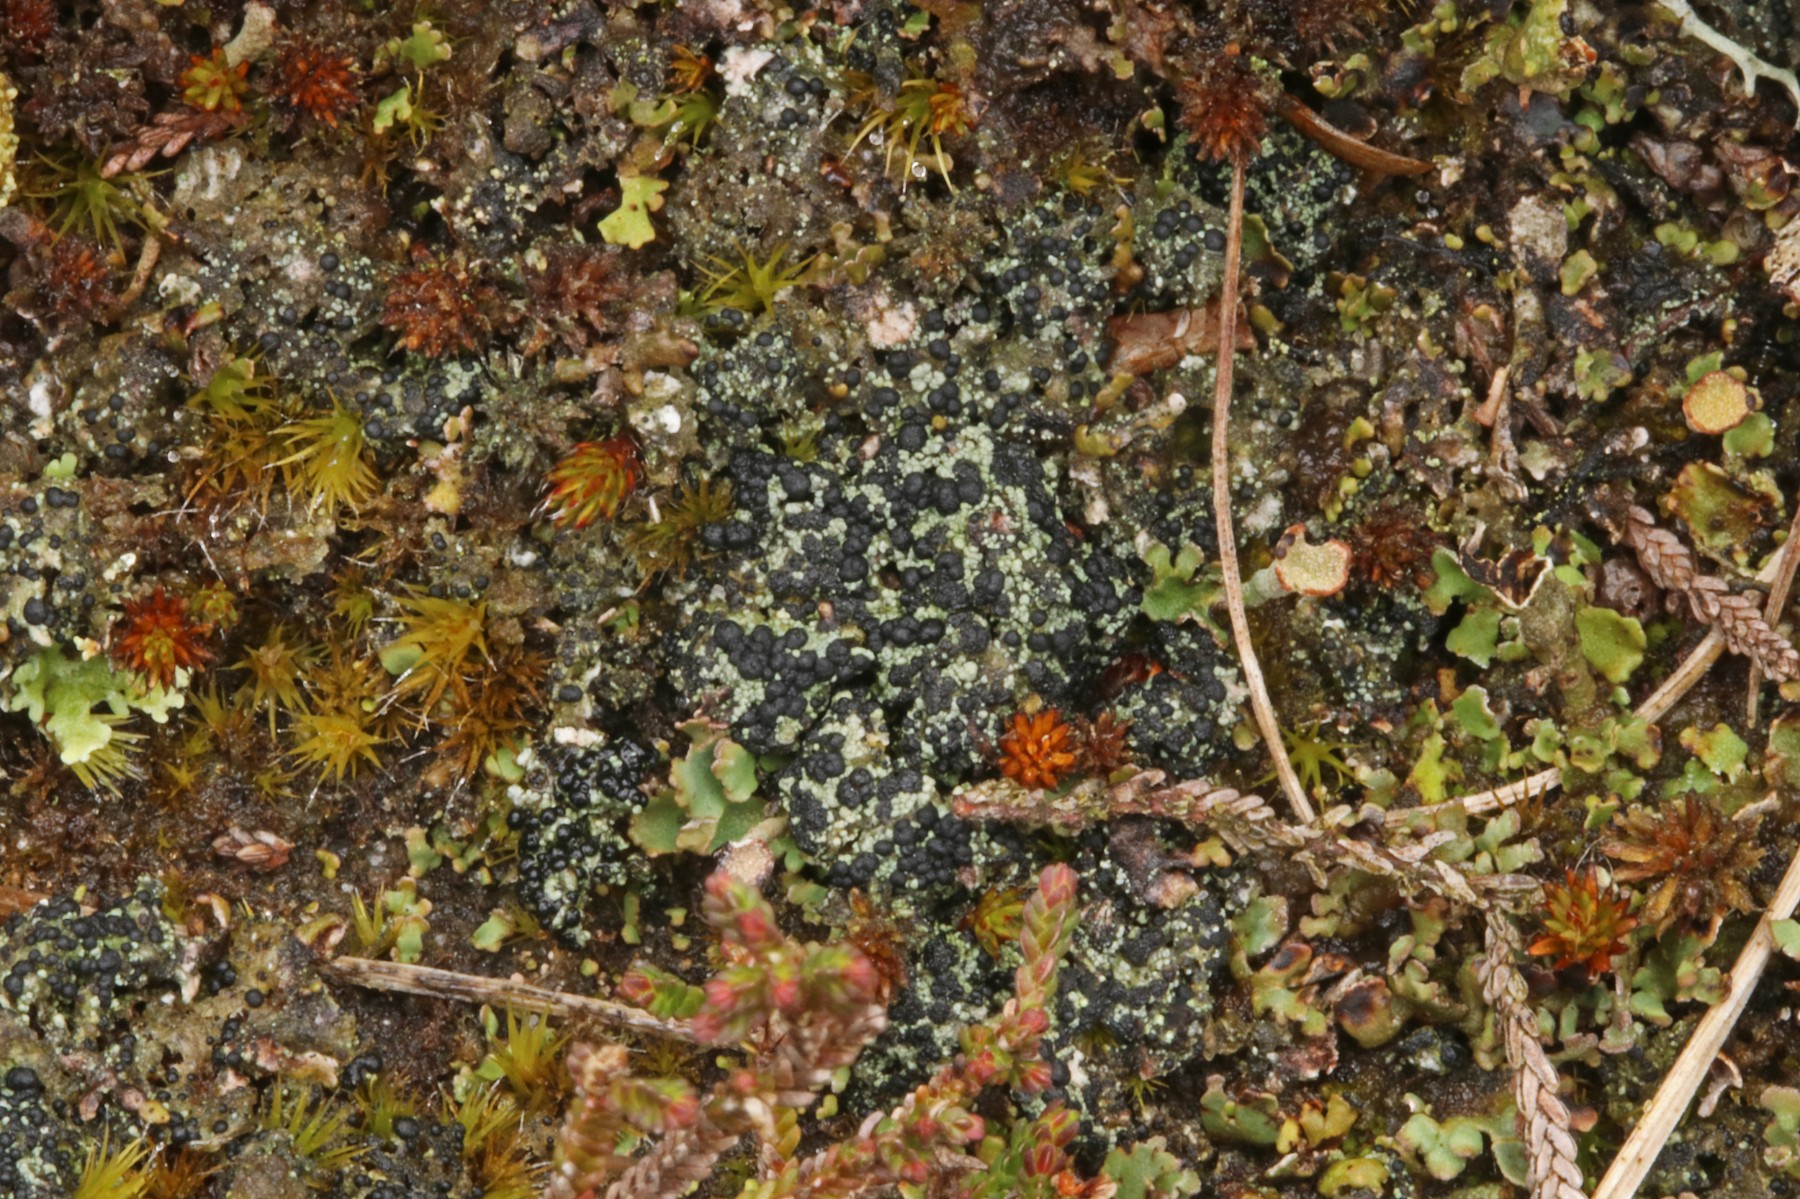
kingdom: Fungi
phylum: Ascomycota
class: Lecanoromycetes
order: Lecanorales
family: Byssolomataceae
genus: Micarea
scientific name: Micarea lignaria
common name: tørve-knaplav
